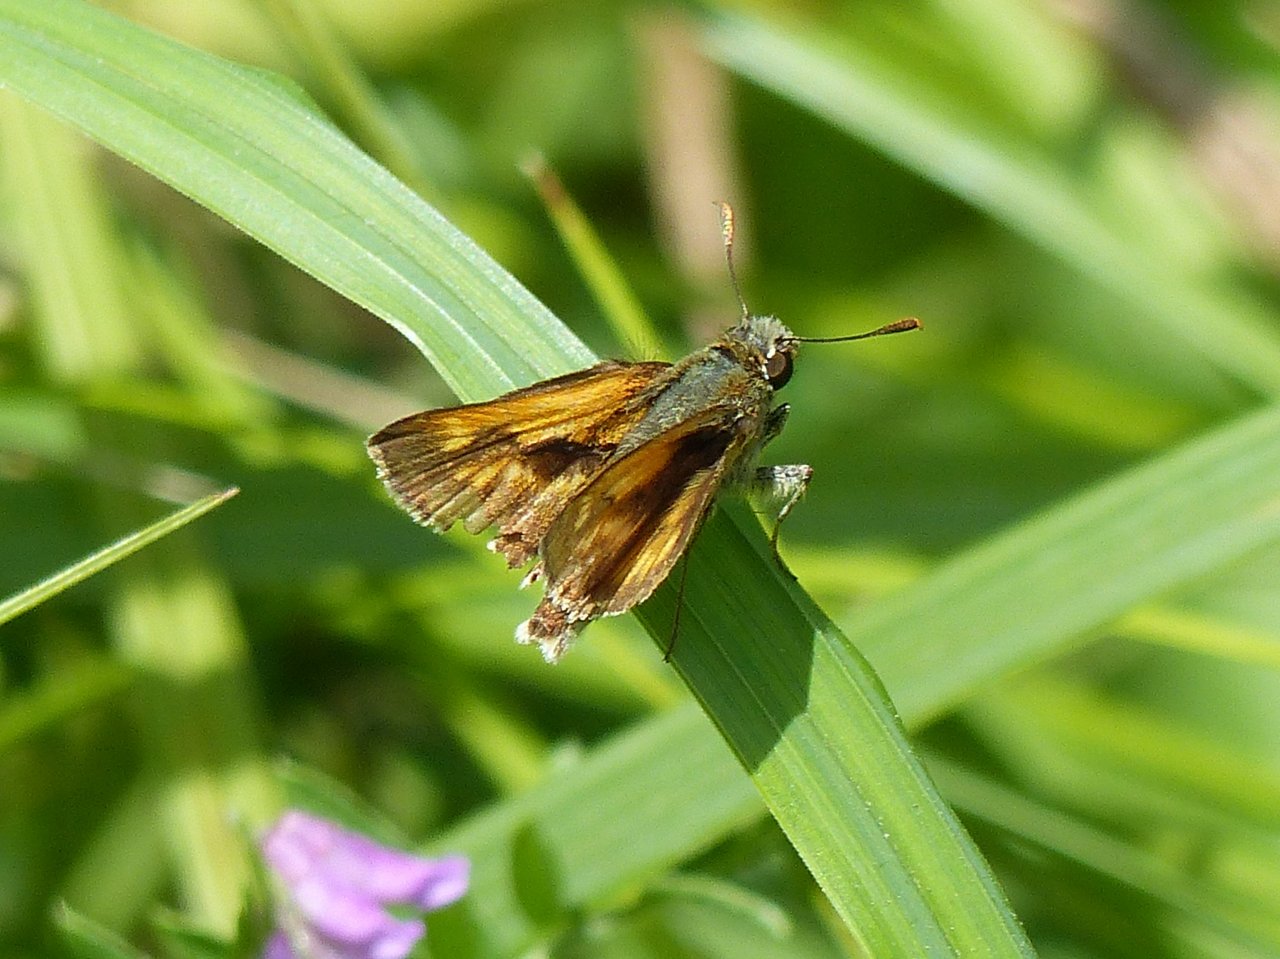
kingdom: Animalia
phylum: Arthropoda
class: Insecta
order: Lepidoptera
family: Hesperiidae
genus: Polites
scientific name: Polites
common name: Long Dash Skipper
